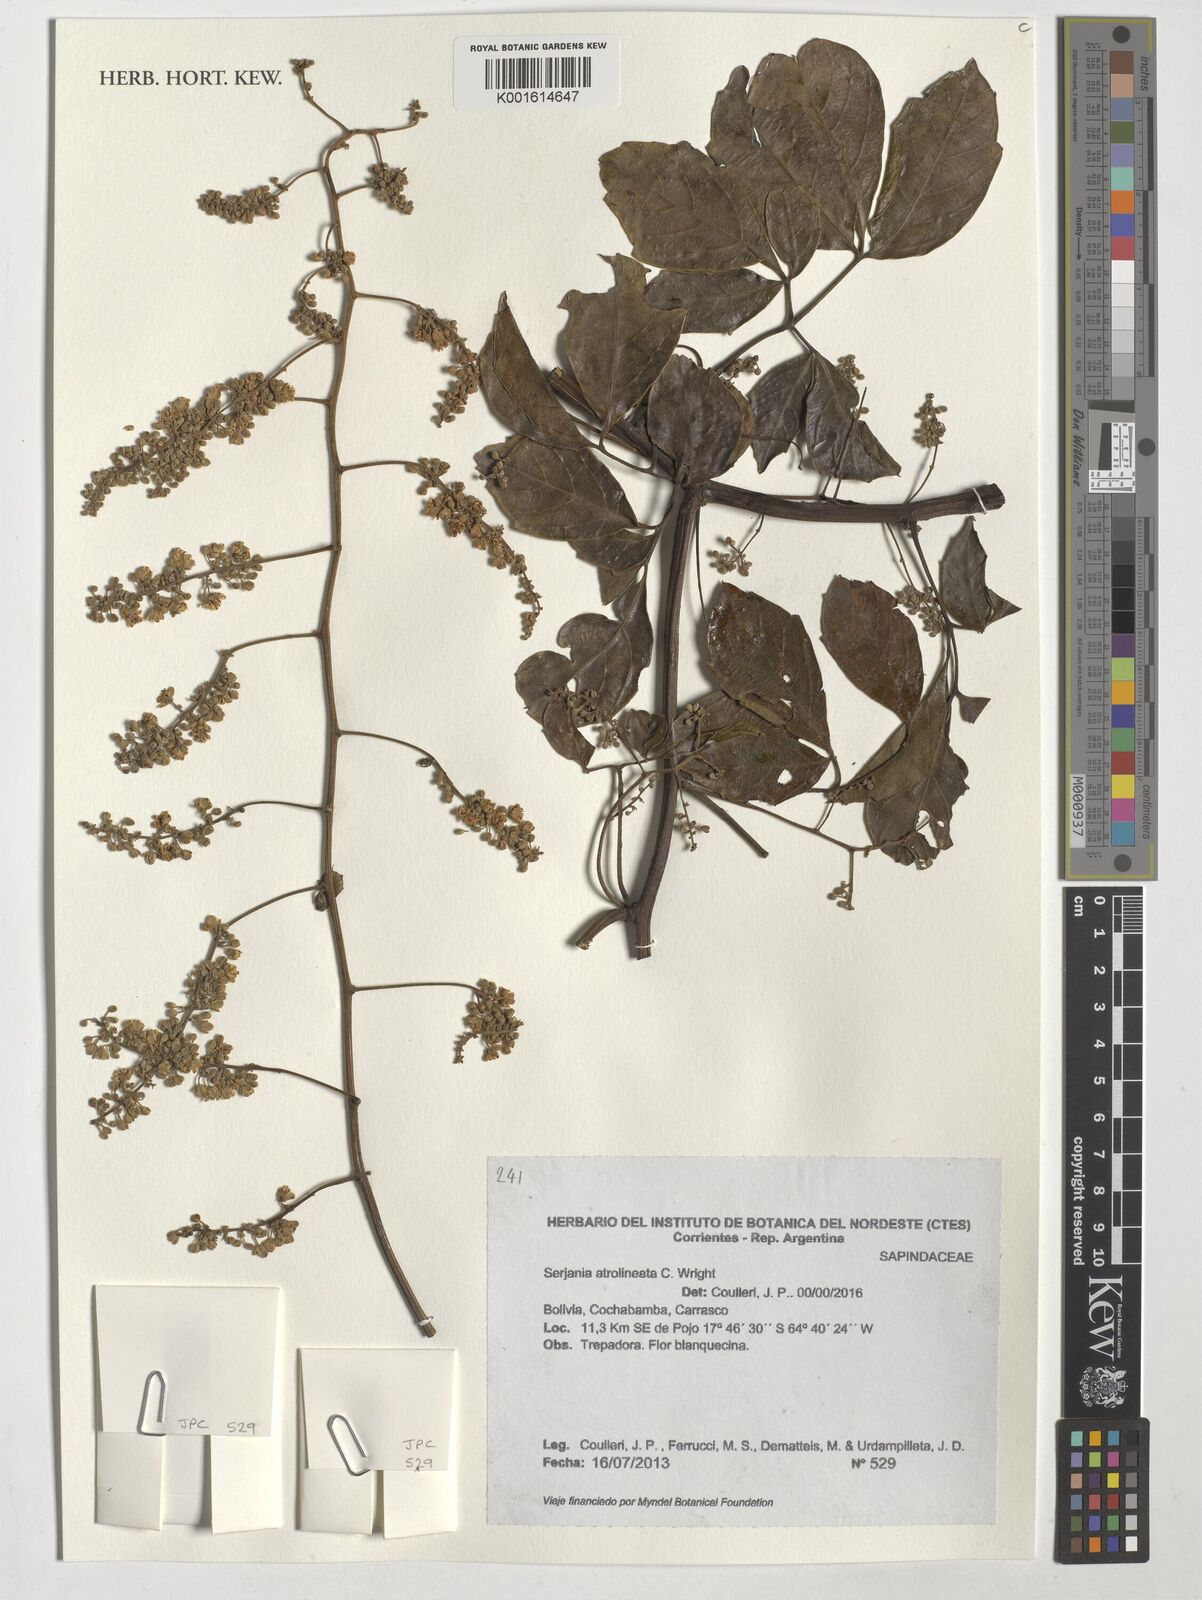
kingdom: Plantae
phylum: Tracheophyta
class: Magnoliopsida
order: Sapindales
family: Sapindaceae
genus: Serjania
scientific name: Serjania atrolineata
